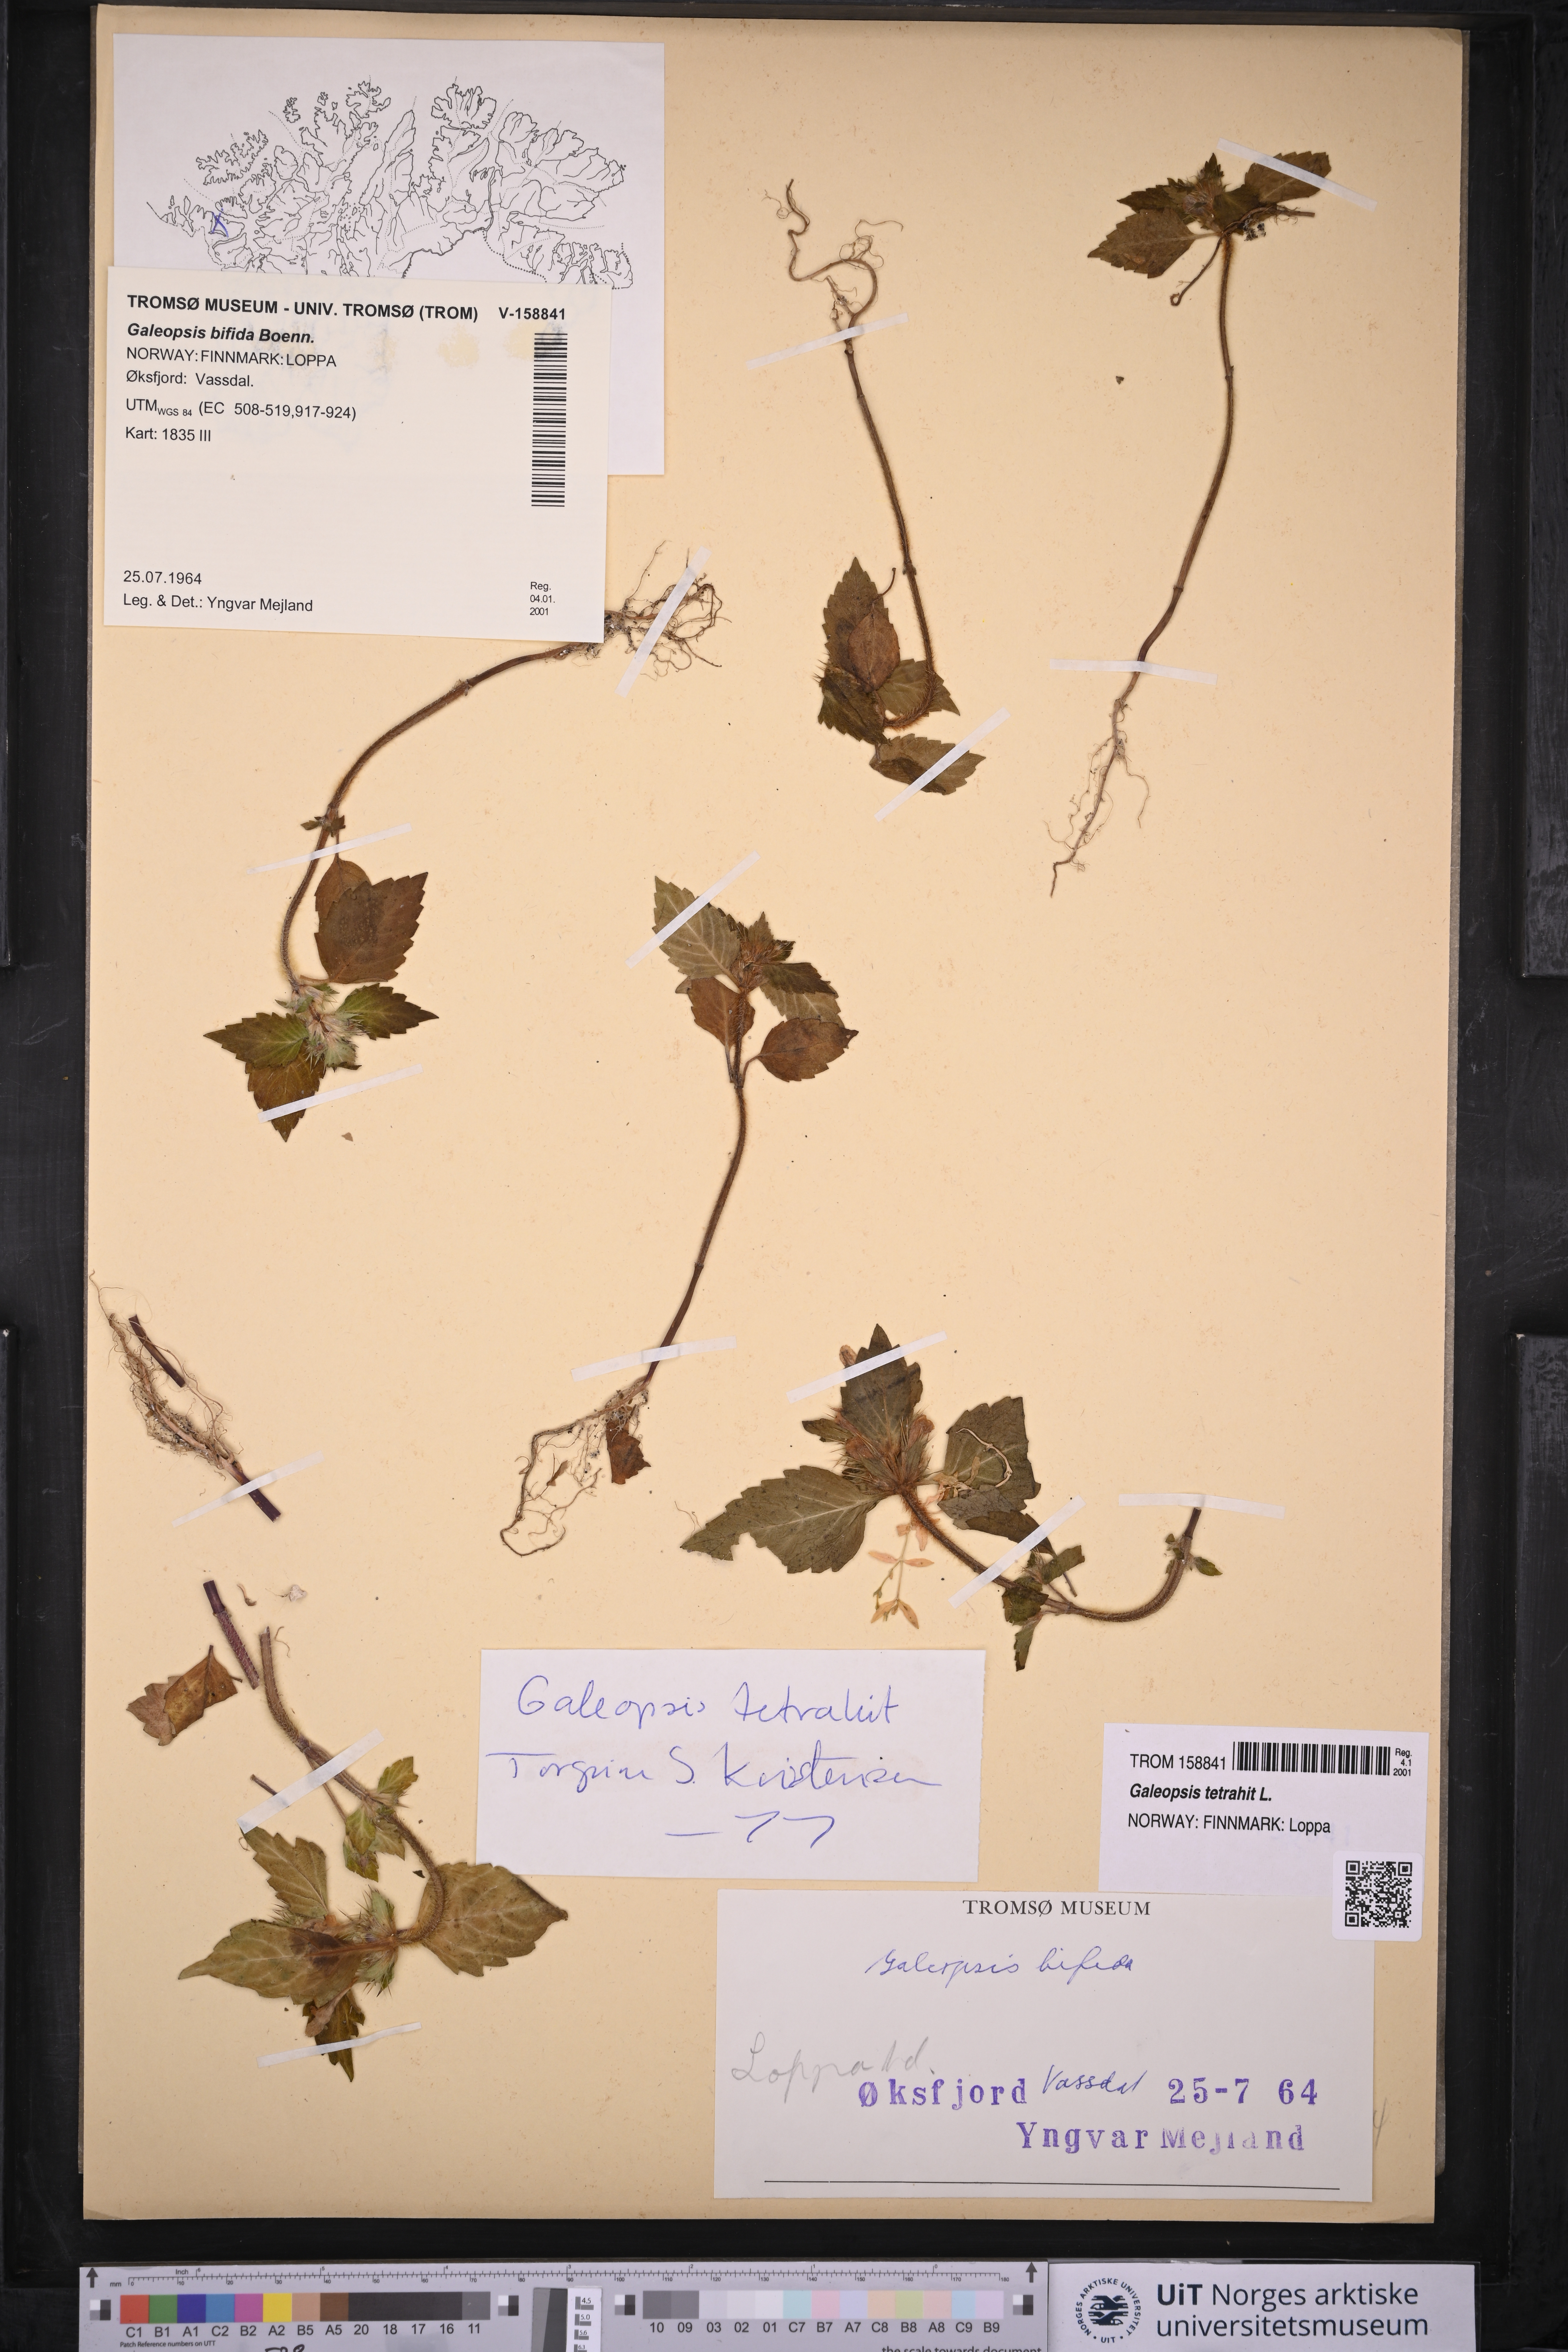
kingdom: Plantae
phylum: Tracheophyta
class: Magnoliopsida
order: Lamiales
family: Lamiaceae
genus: Galeopsis
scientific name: Galeopsis tetrahit
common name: Common hemp-nettle
